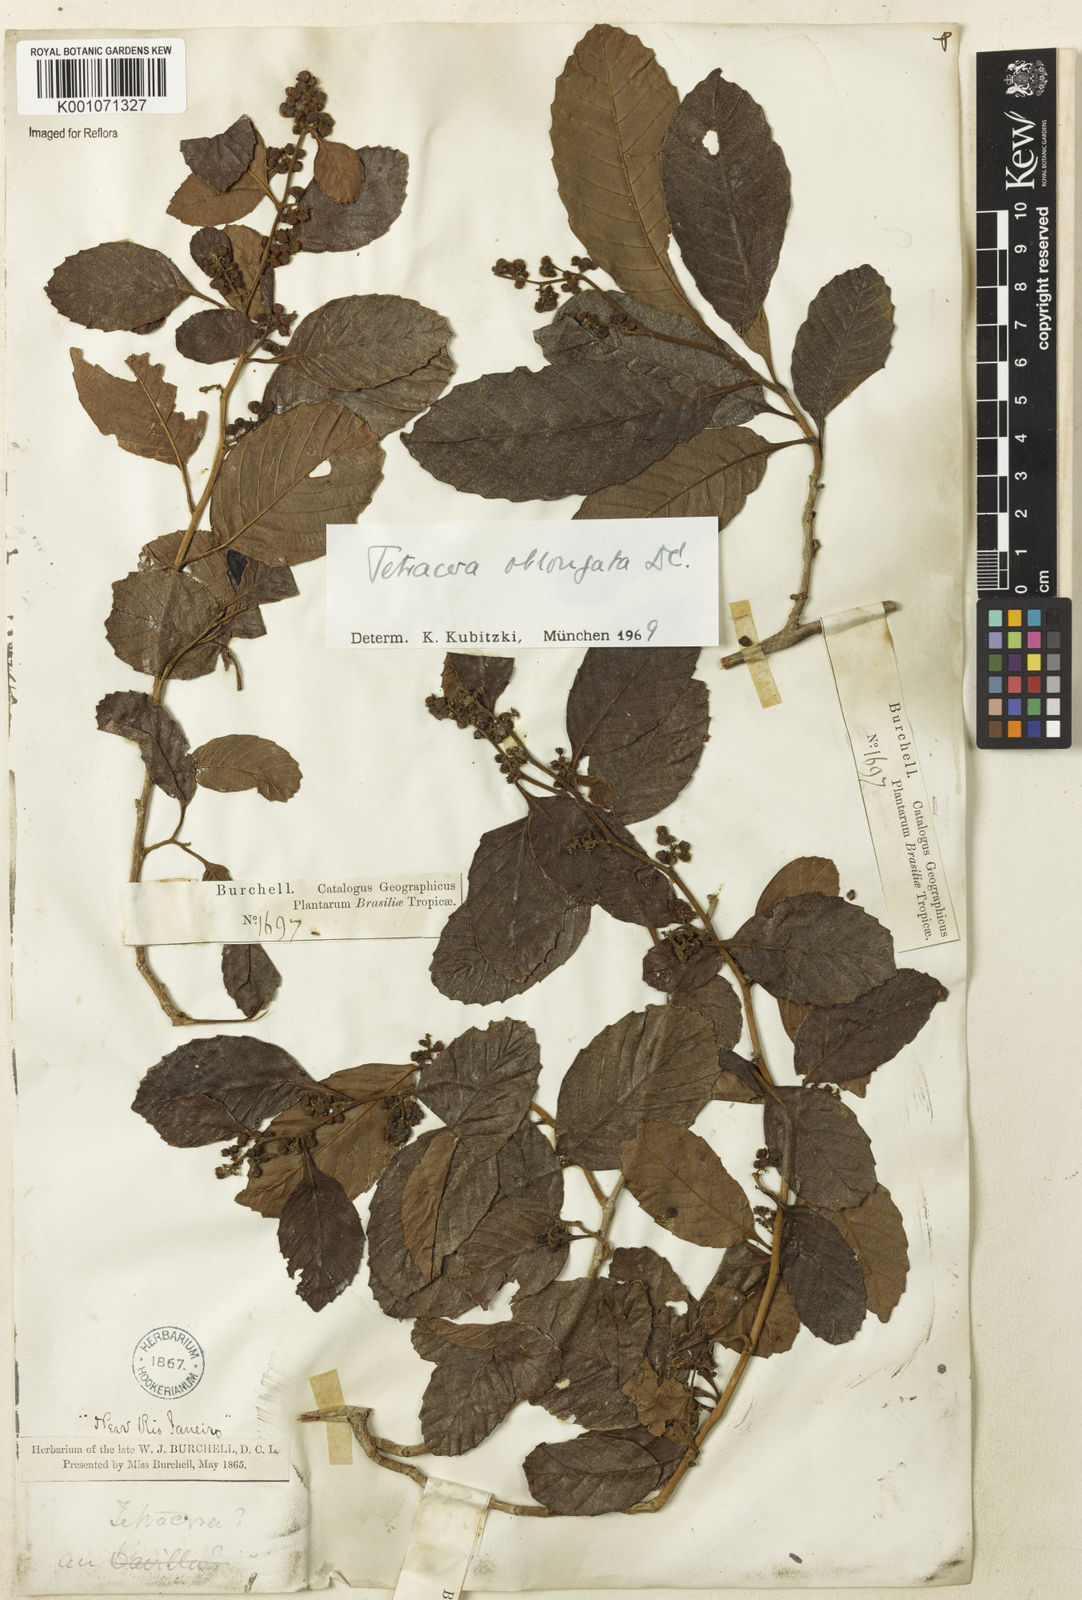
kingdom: Plantae
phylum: Tracheophyta
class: Magnoliopsida
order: Dilleniales
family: Dilleniaceae
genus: Tetracera
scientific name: Tetracera oblongata
